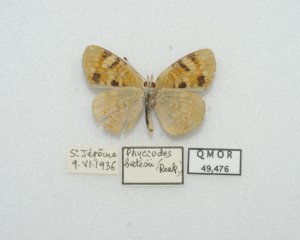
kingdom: Animalia
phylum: Arthropoda
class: Insecta
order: Lepidoptera
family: Nymphalidae
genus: Phyciodes
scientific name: Phyciodes batesii
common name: Tawny Crescent
